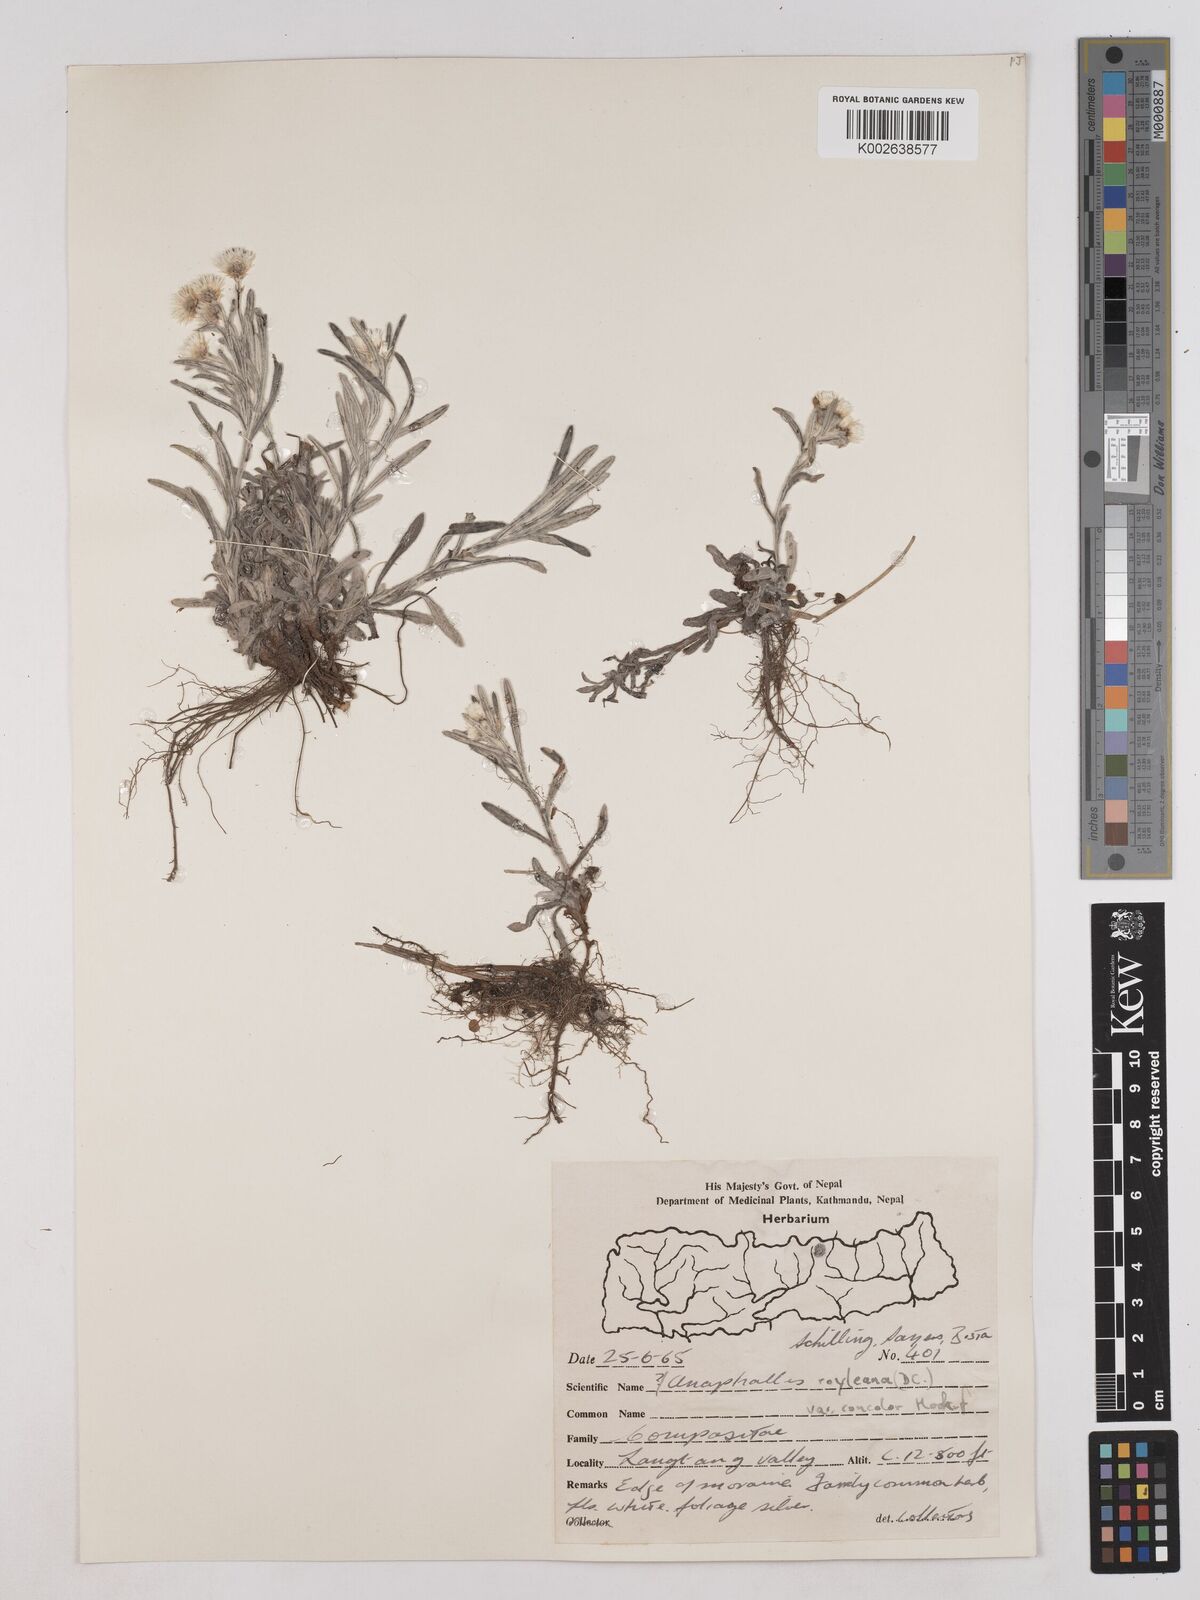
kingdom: Plantae
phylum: Tracheophyta
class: Magnoliopsida
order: Asterales
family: Asteraceae
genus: Anaphalis
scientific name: Anaphalis royleana
